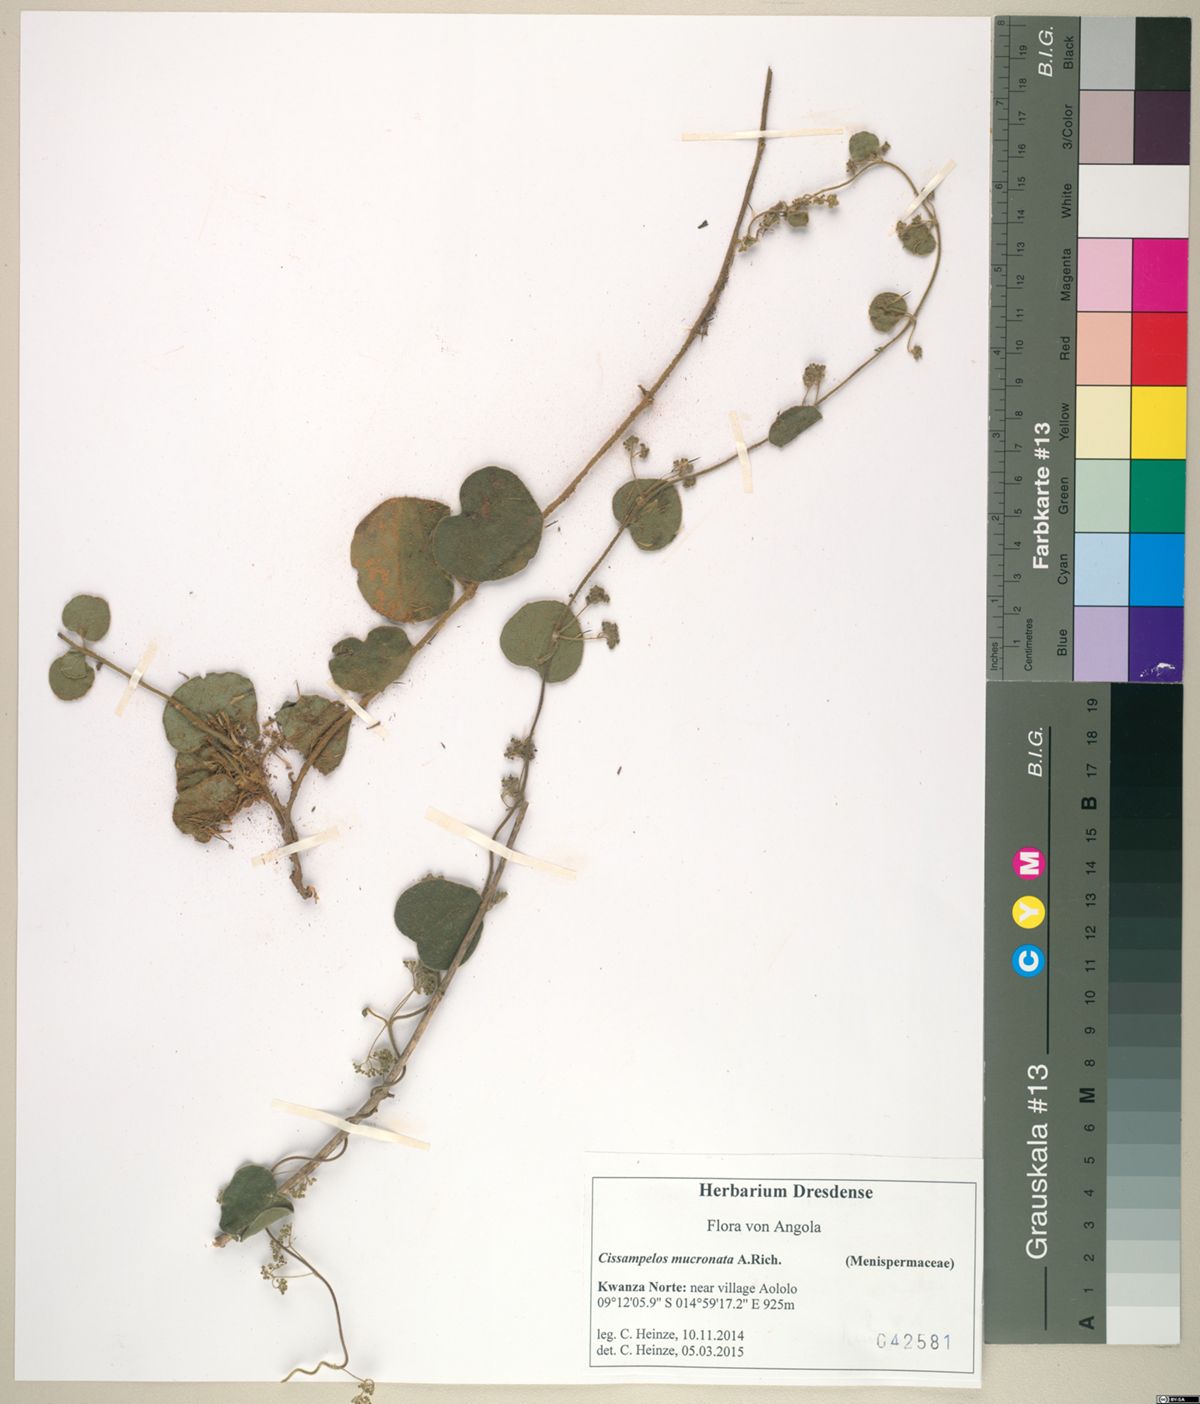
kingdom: Plantae
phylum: Tracheophyta
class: Magnoliopsida
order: Ranunculales
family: Menispermaceae
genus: Cissampelos
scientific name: Cissampelos mucronata
